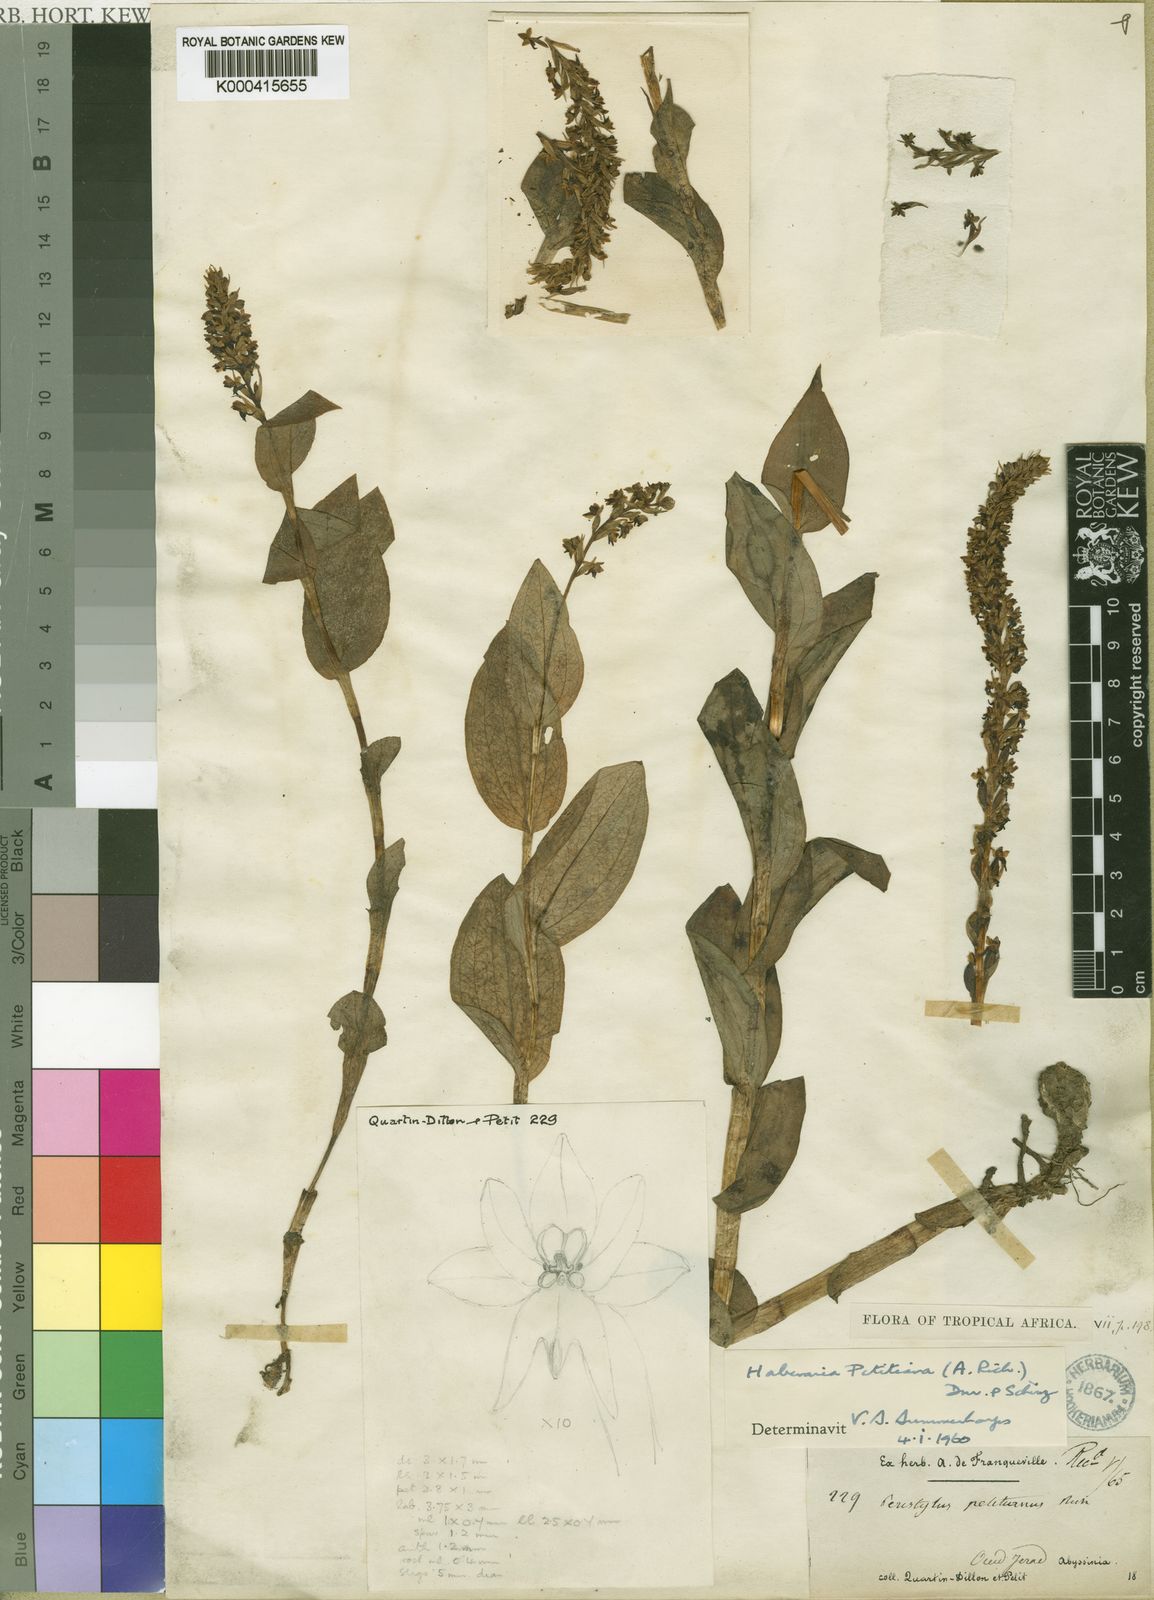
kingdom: Plantae
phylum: Tracheophyta
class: Liliopsida
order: Asparagales
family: Orchidaceae
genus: Habenaria
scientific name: Habenaria petitiana
